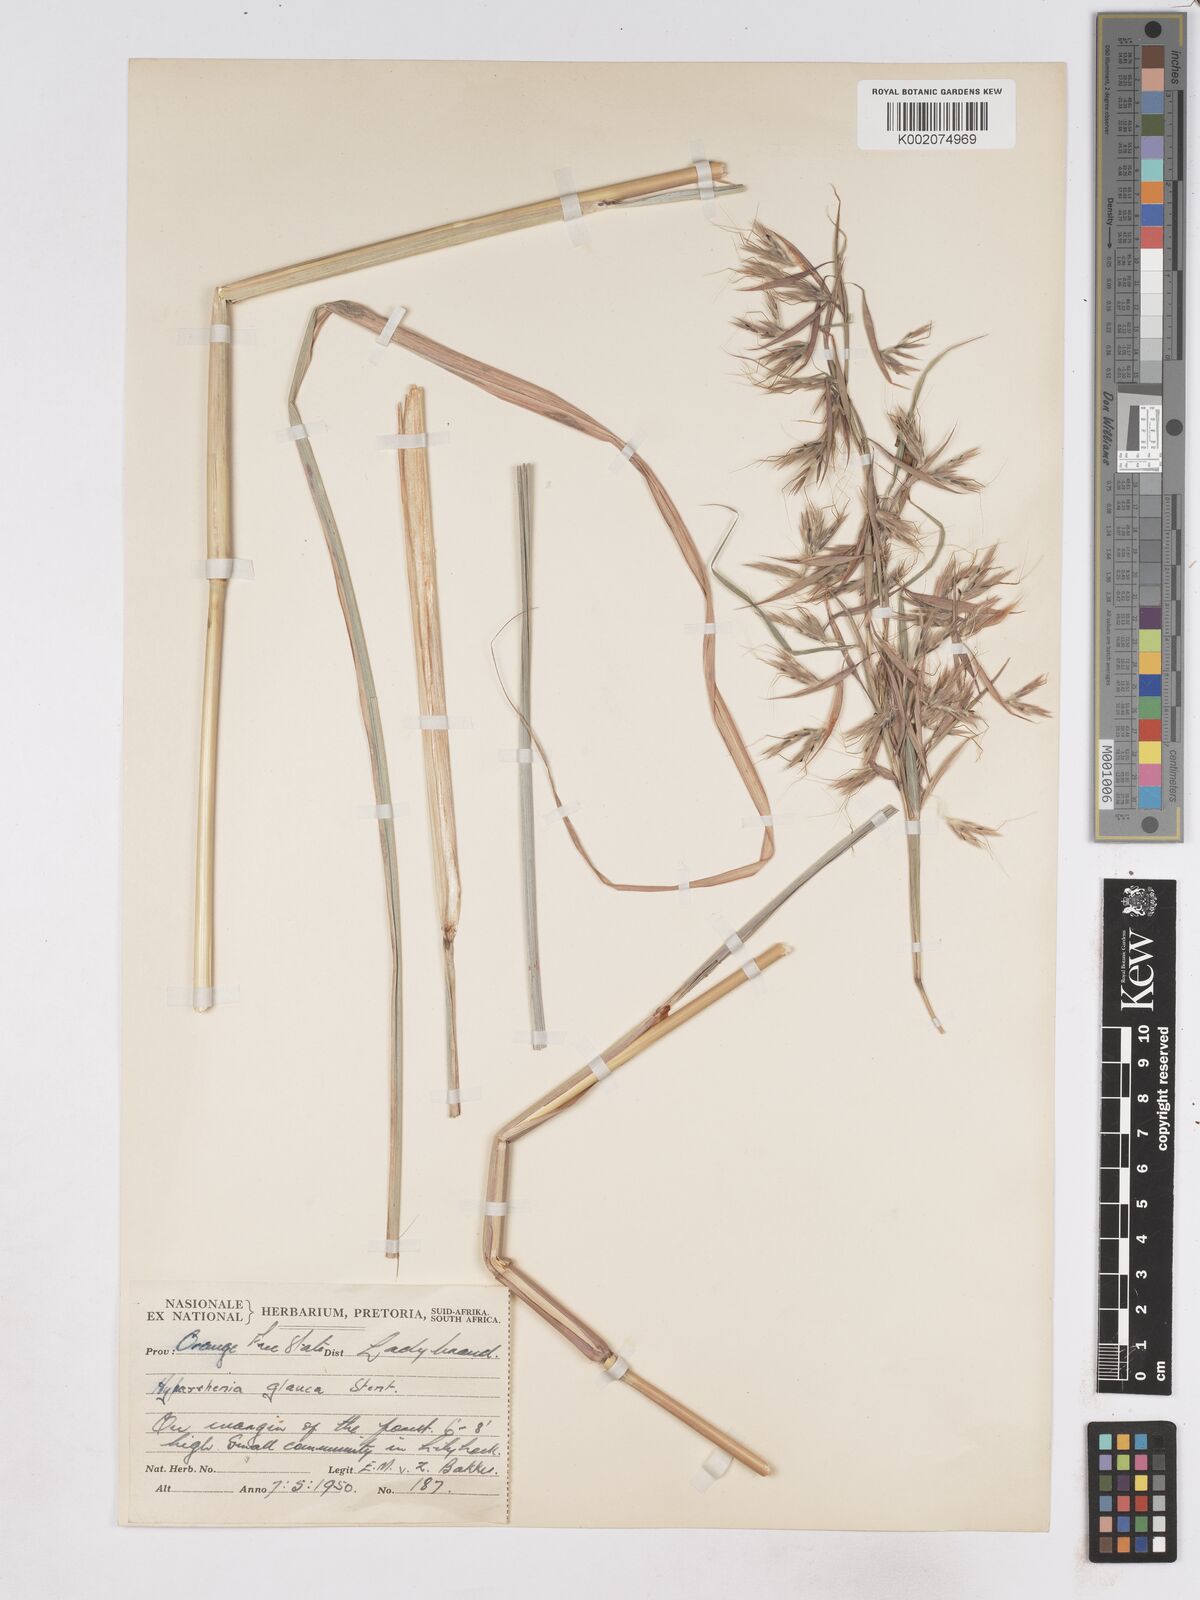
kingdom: Plantae
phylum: Tracheophyta
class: Liliopsida
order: Poales
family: Poaceae
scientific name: Poaceae
